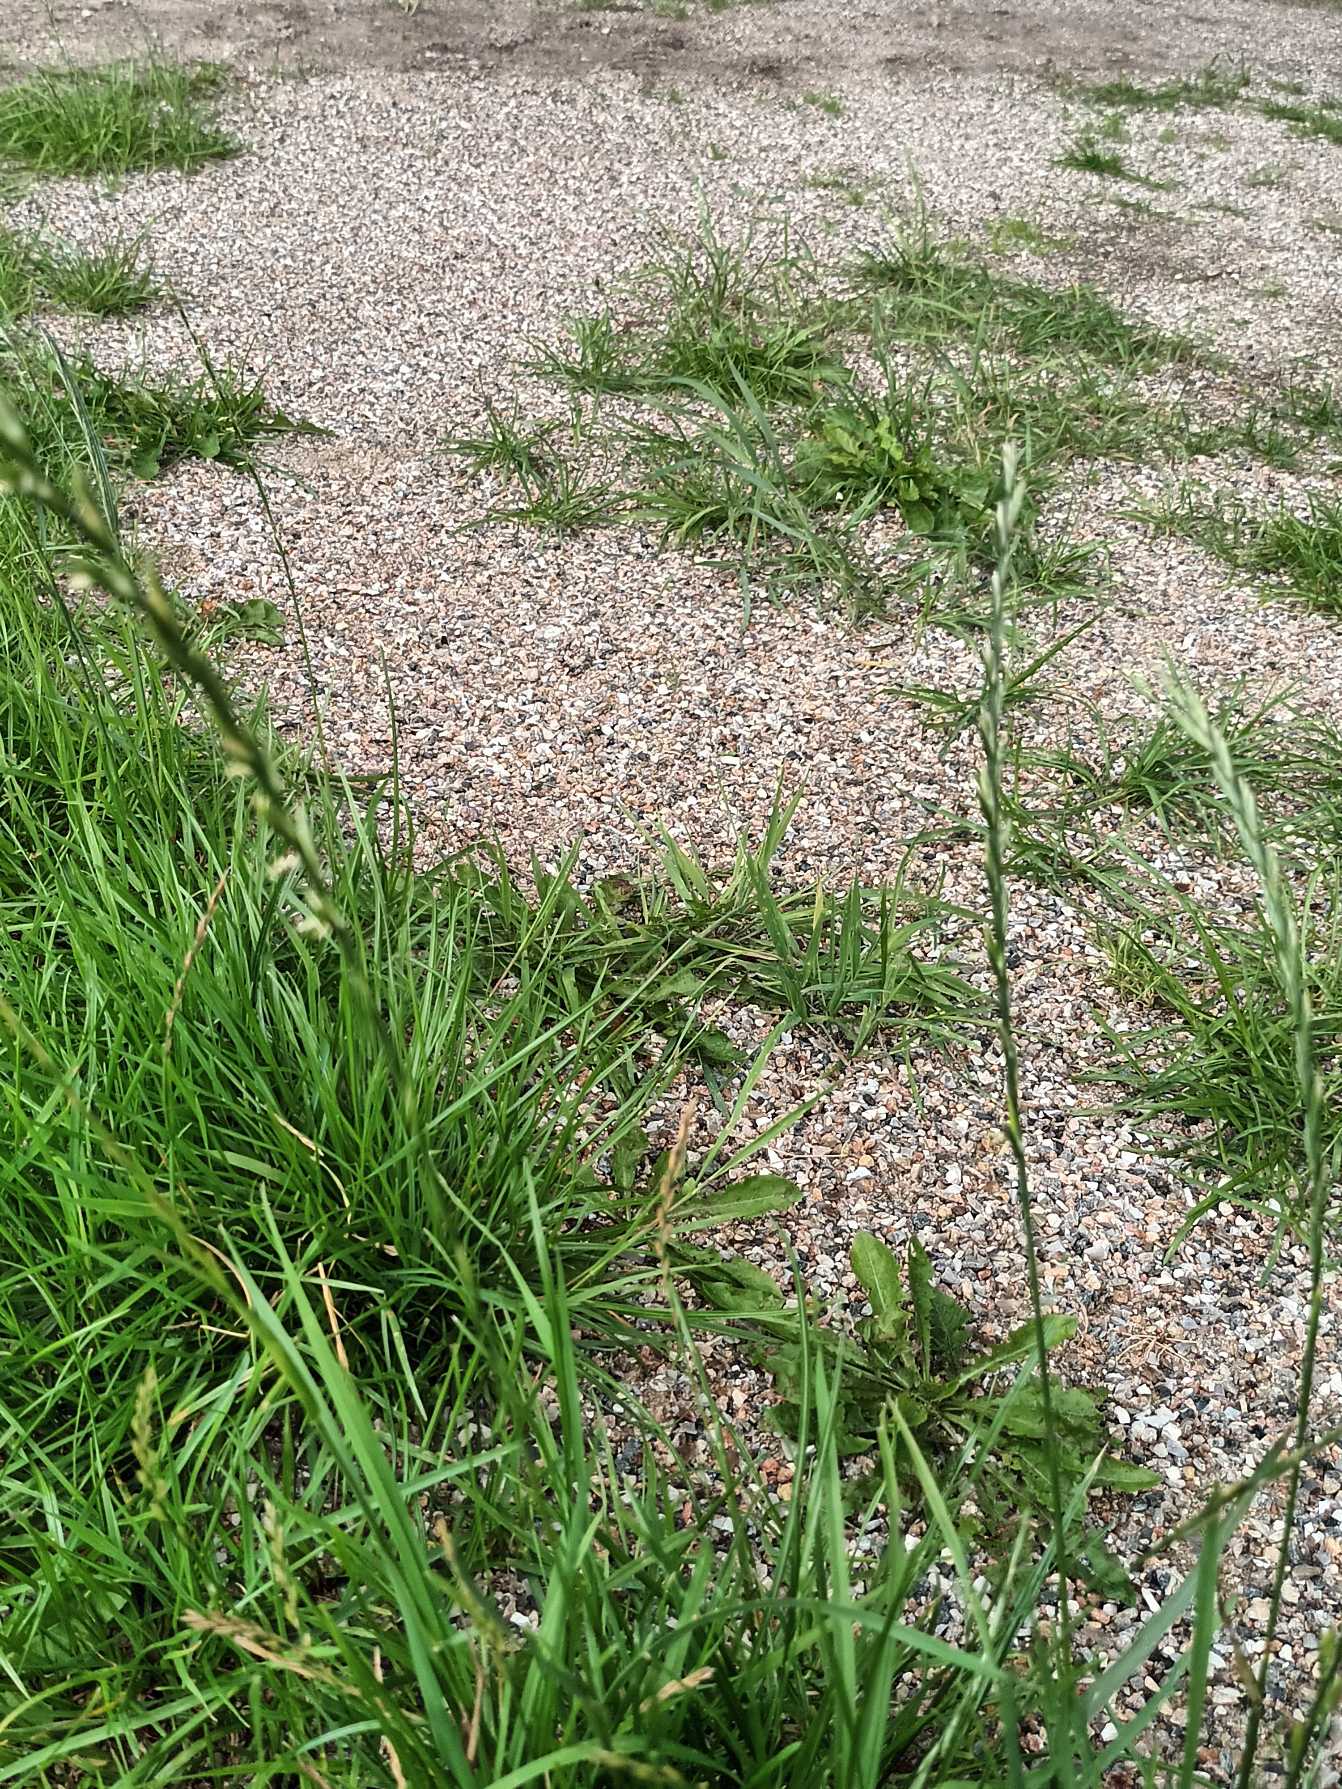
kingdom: Plantae
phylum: Tracheophyta
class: Liliopsida
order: Poales
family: Poaceae
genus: Lolium
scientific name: Lolium perenne
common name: Almindelig rajgræs
